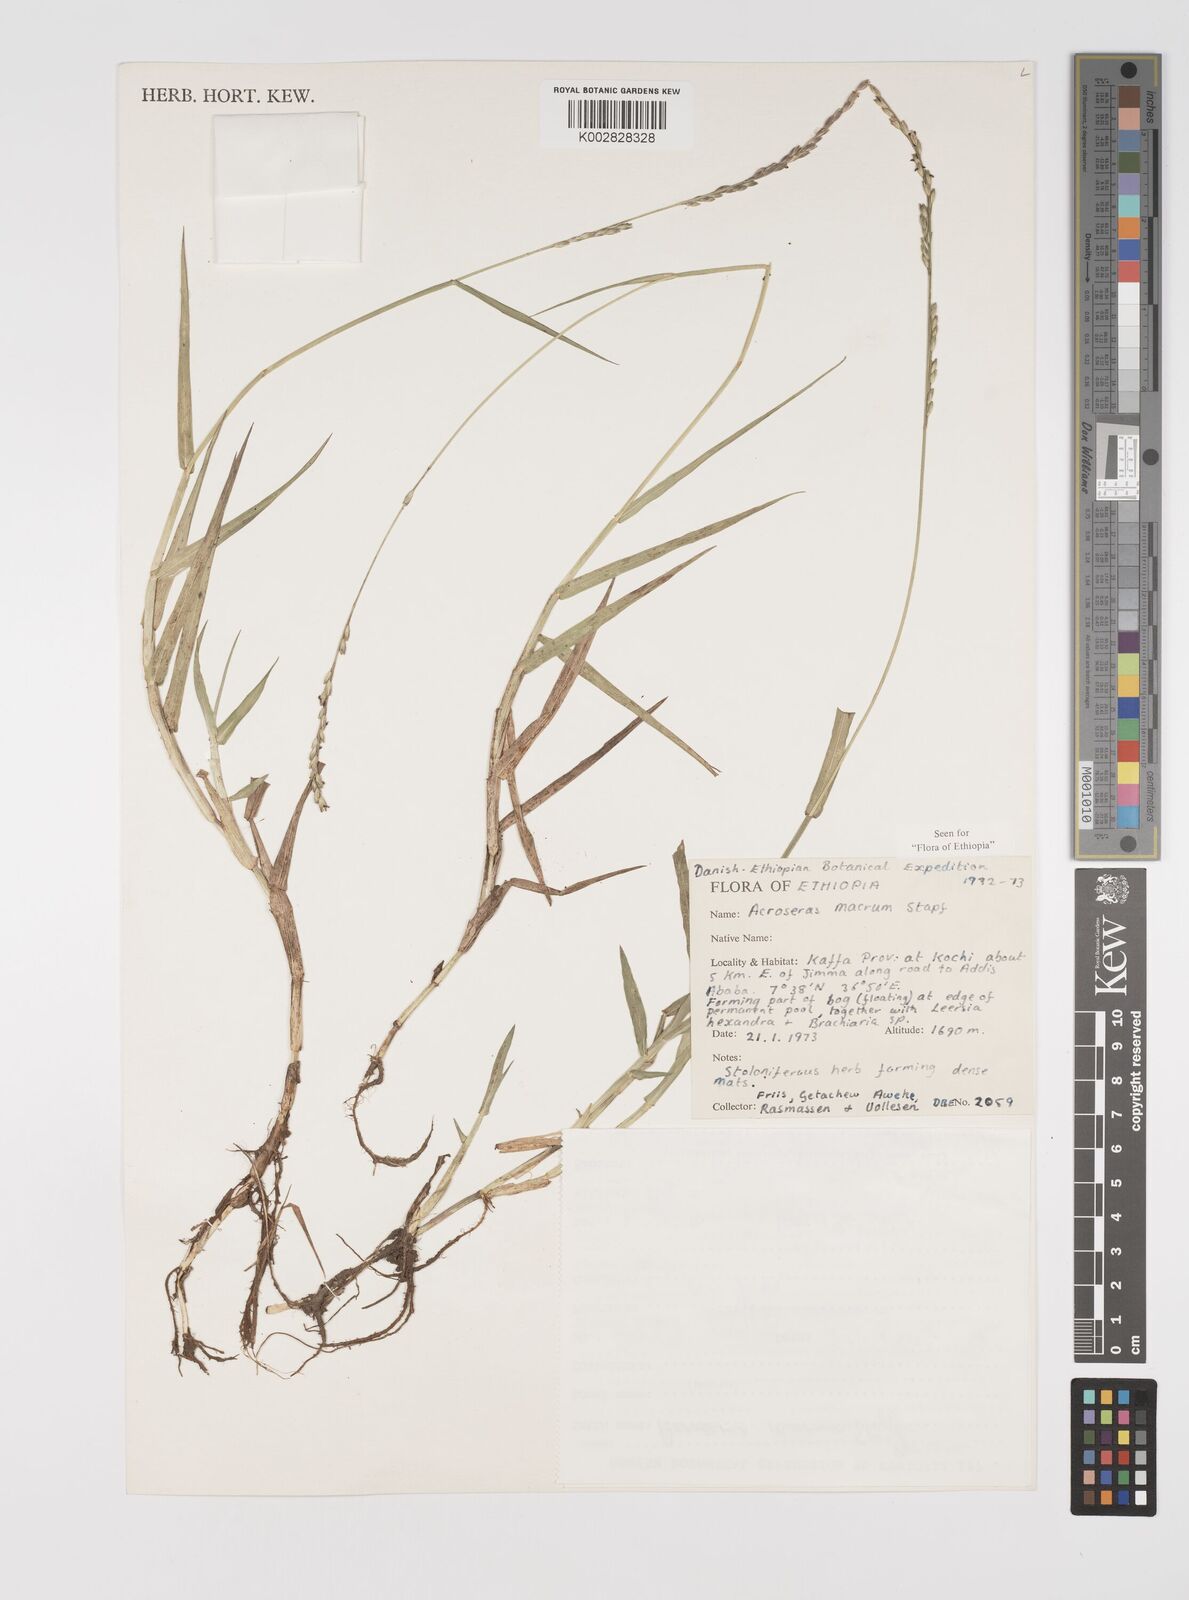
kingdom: Plantae
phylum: Tracheophyta
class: Liliopsida
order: Poales
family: Poaceae
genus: Acroceras
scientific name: Acroceras macrum
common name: Nyl grass
